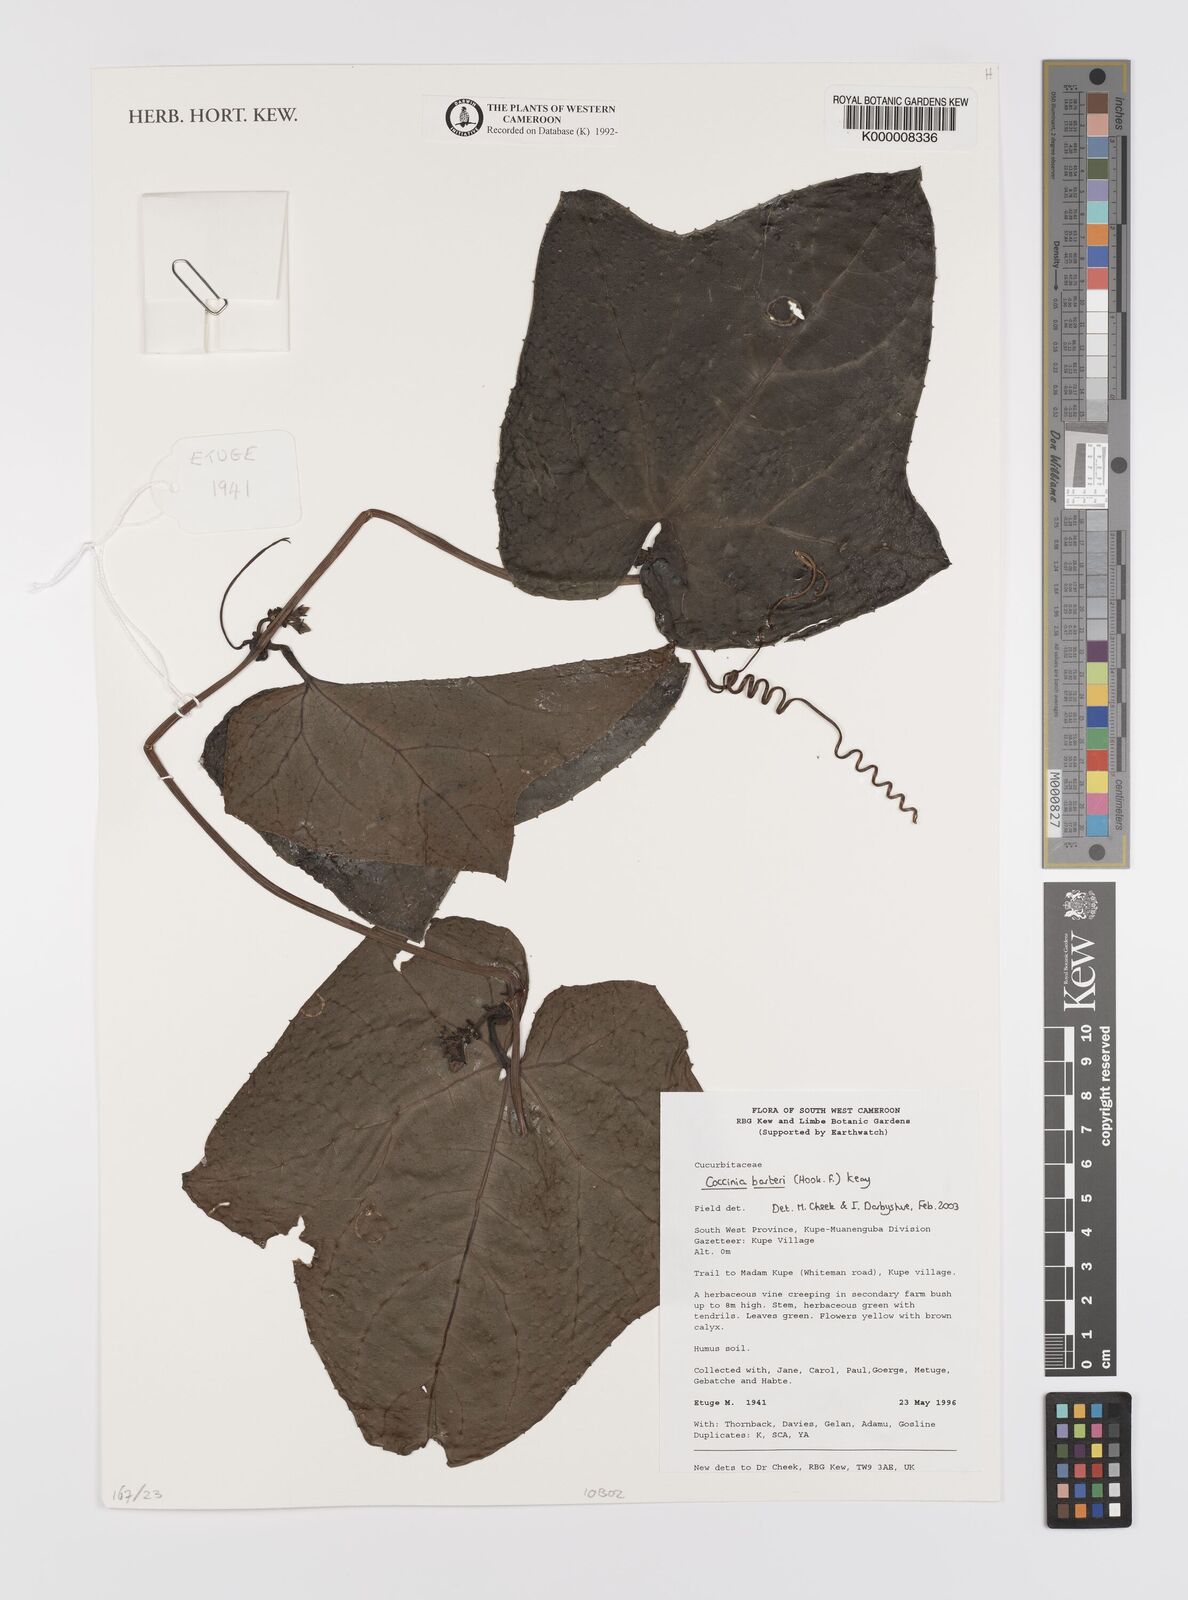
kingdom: Plantae
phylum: Tracheophyta
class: Magnoliopsida
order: Cucurbitales
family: Cucurbitaceae
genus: Coccinia
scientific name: Coccinia barteri
